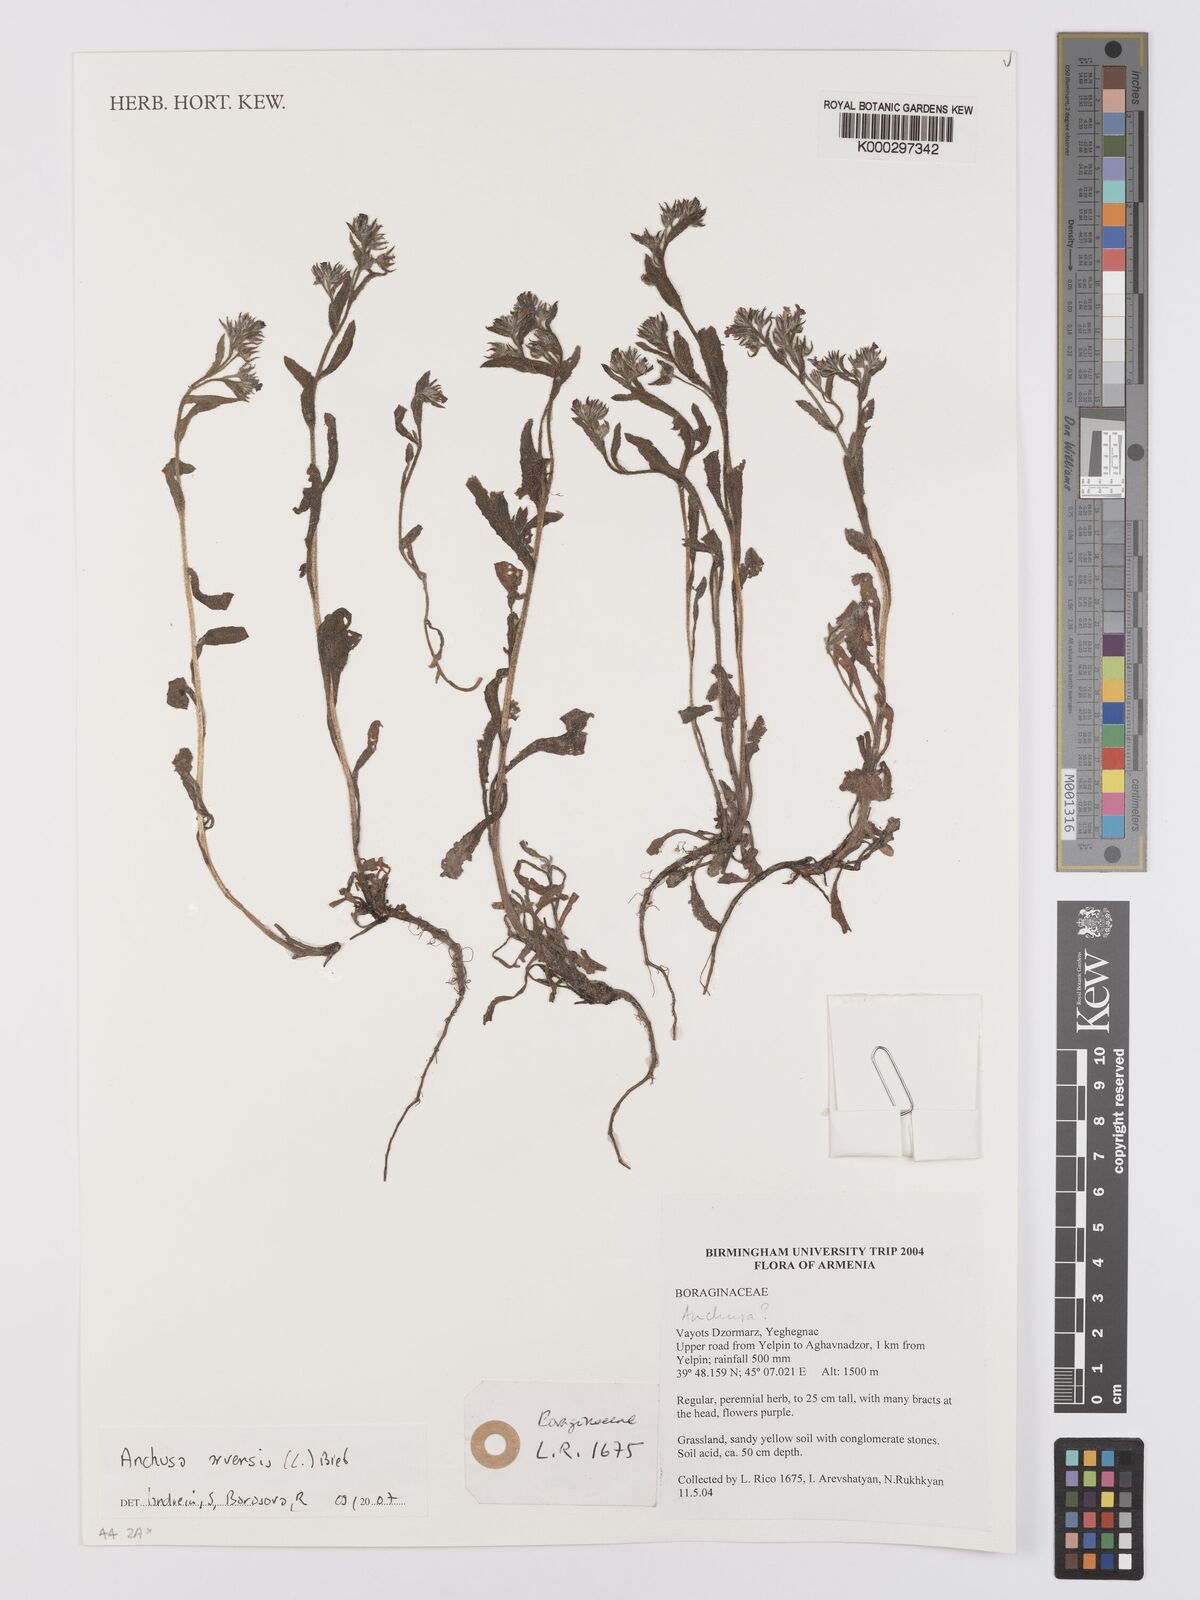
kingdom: Plantae
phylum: Tracheophyta
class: Magnoliopsida
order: Boraginales
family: Boraginaceae
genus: Lycopsis
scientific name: Lycopsis arvensis
